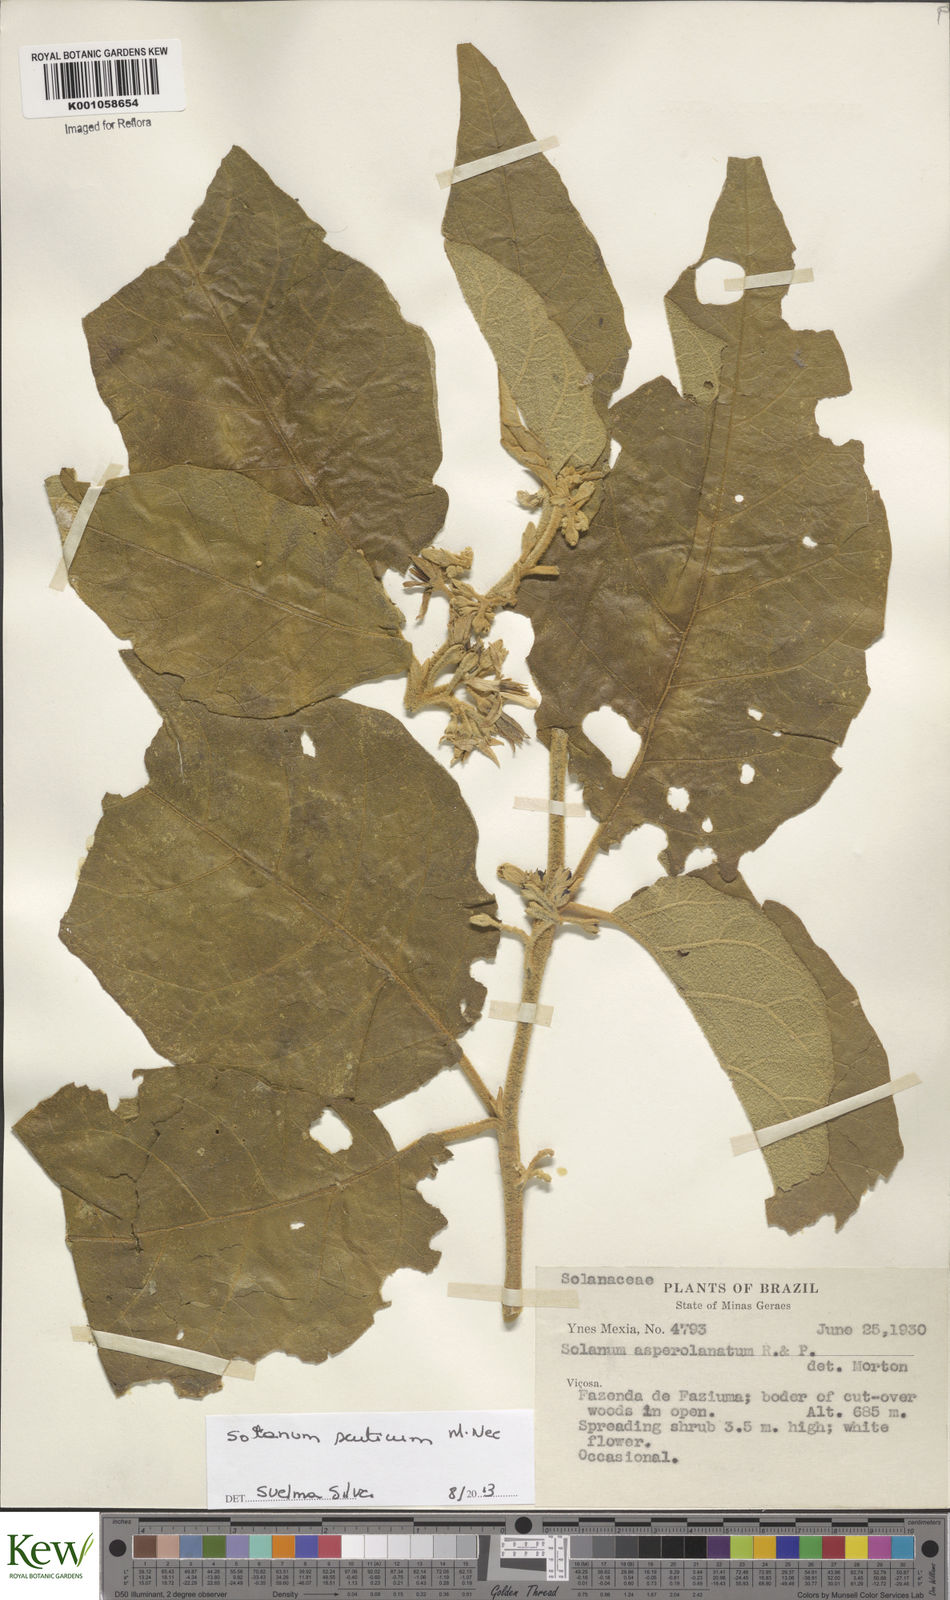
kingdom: Plantae
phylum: Tracheophyta
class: Magnoliopsida
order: Solanales
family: Solanaceae
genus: Solanum
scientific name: Solanum scuticum
